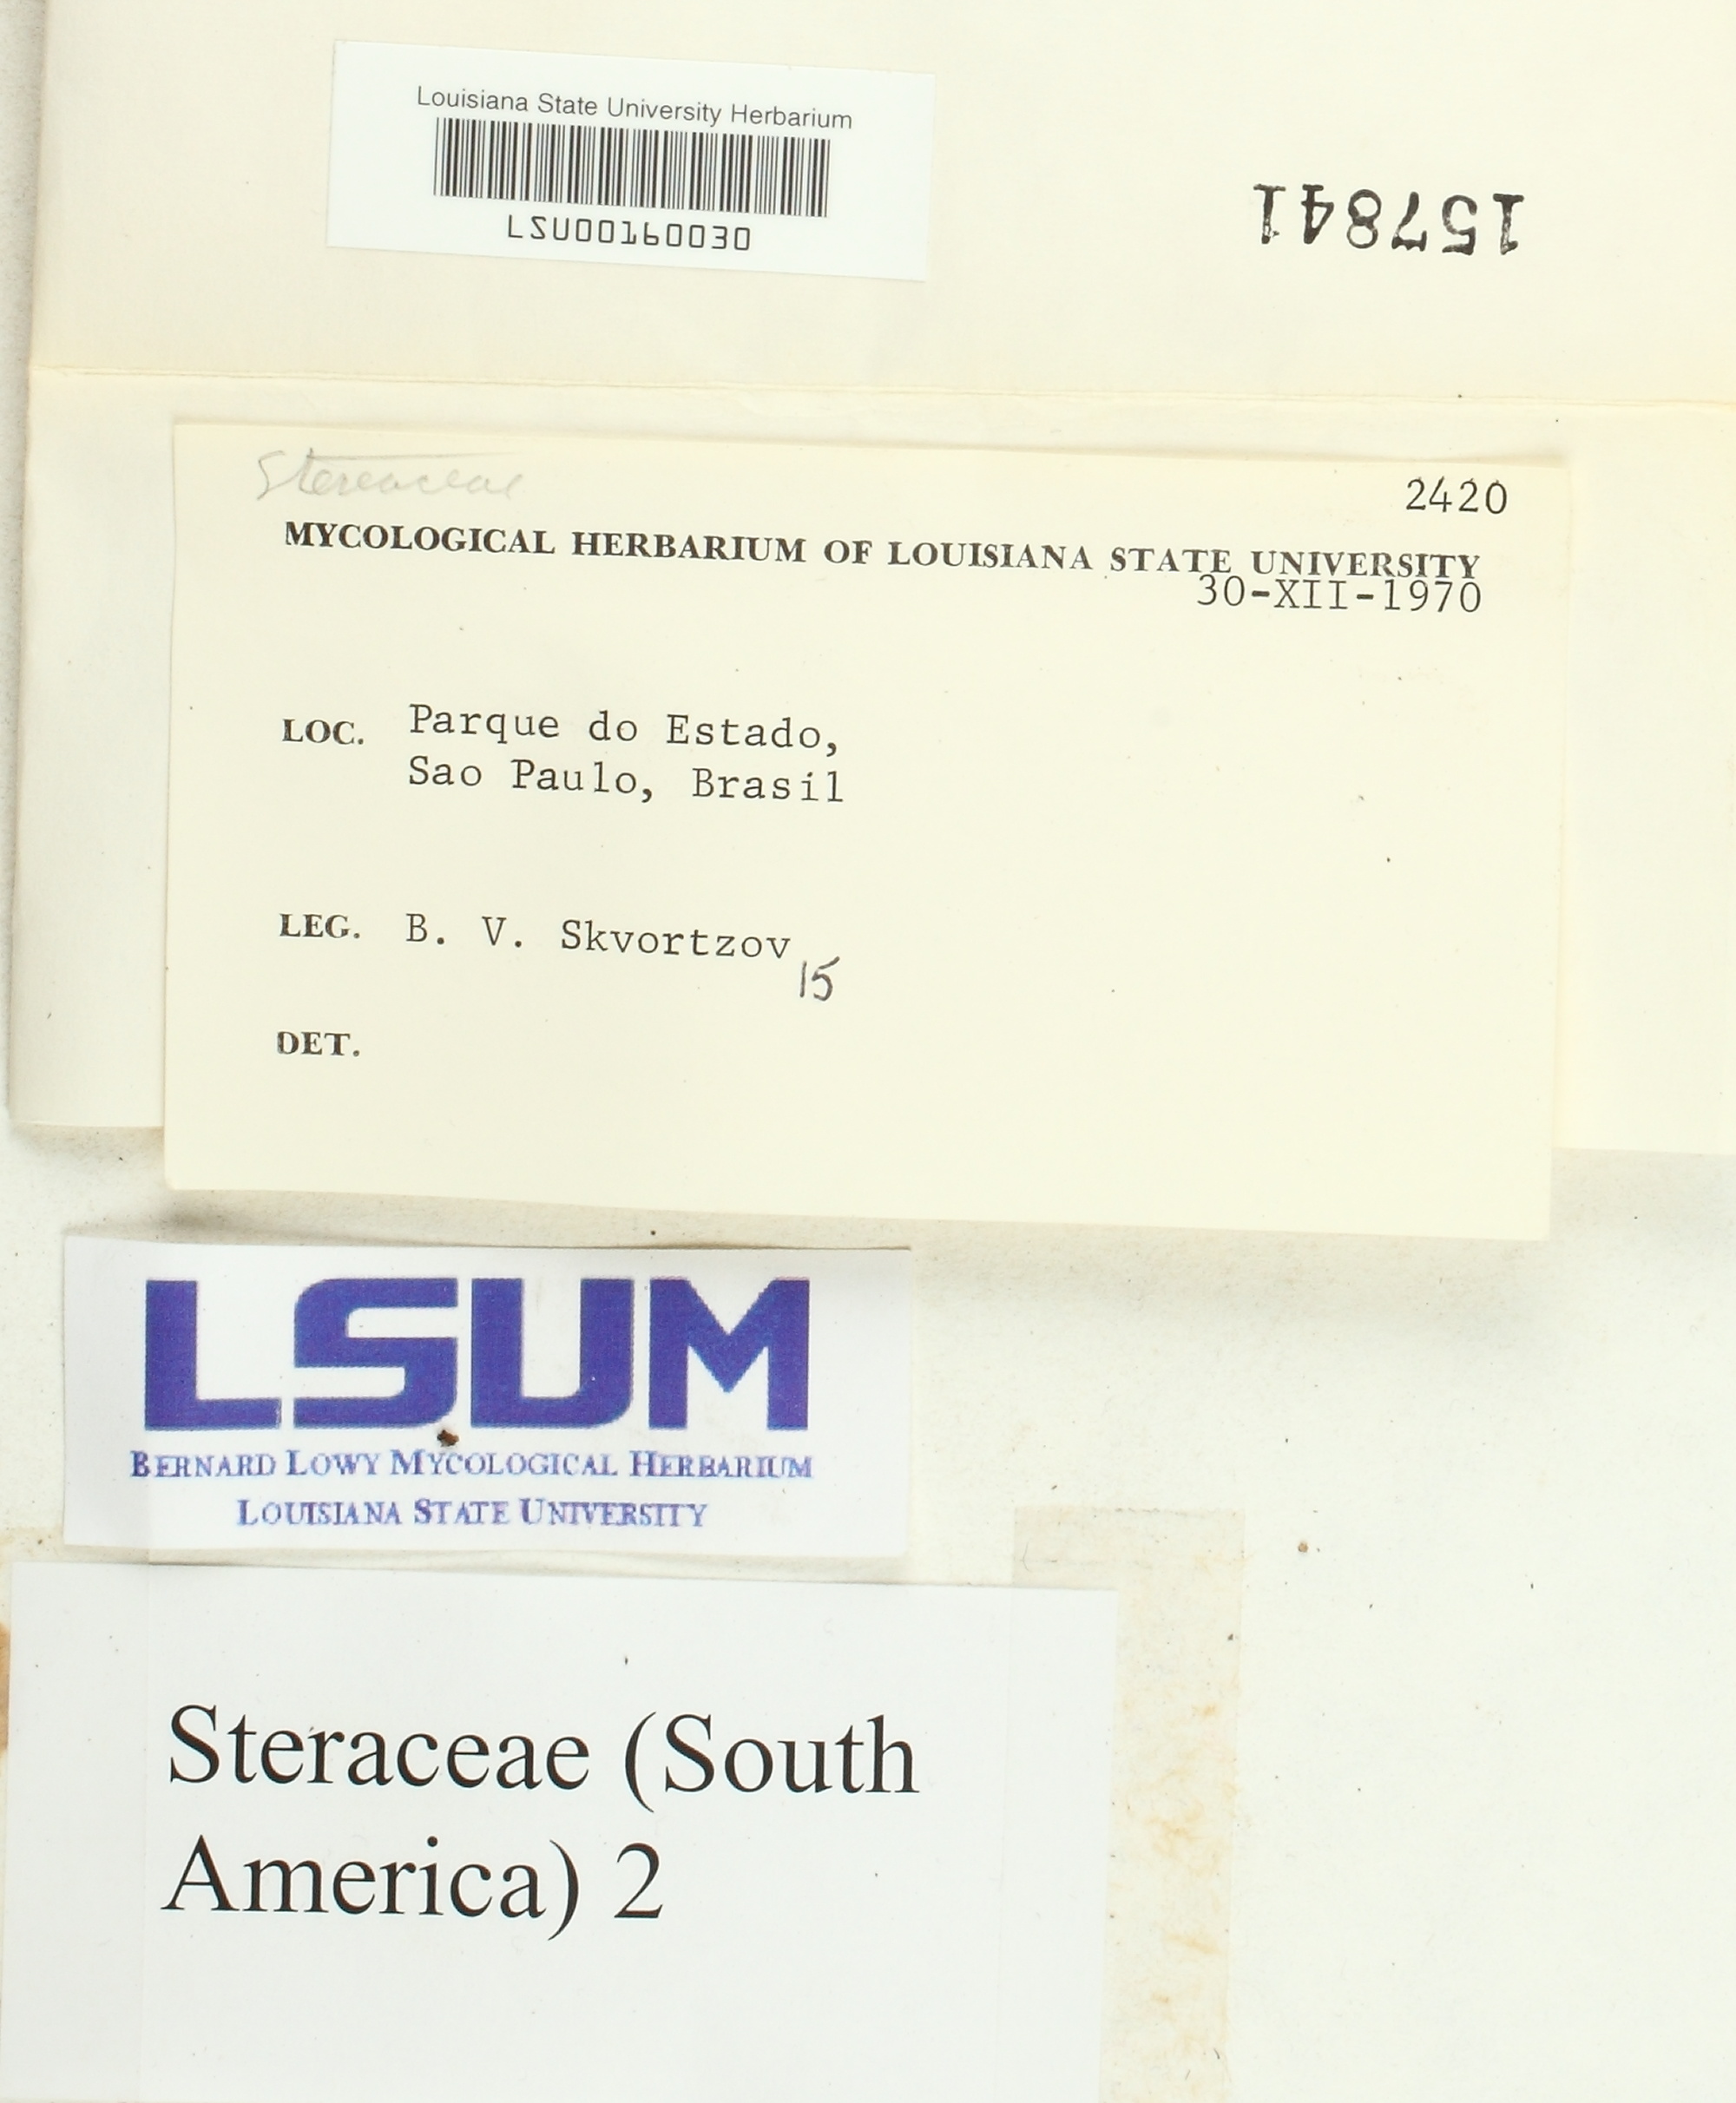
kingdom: Fungi
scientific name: Fungi
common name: Fungi
